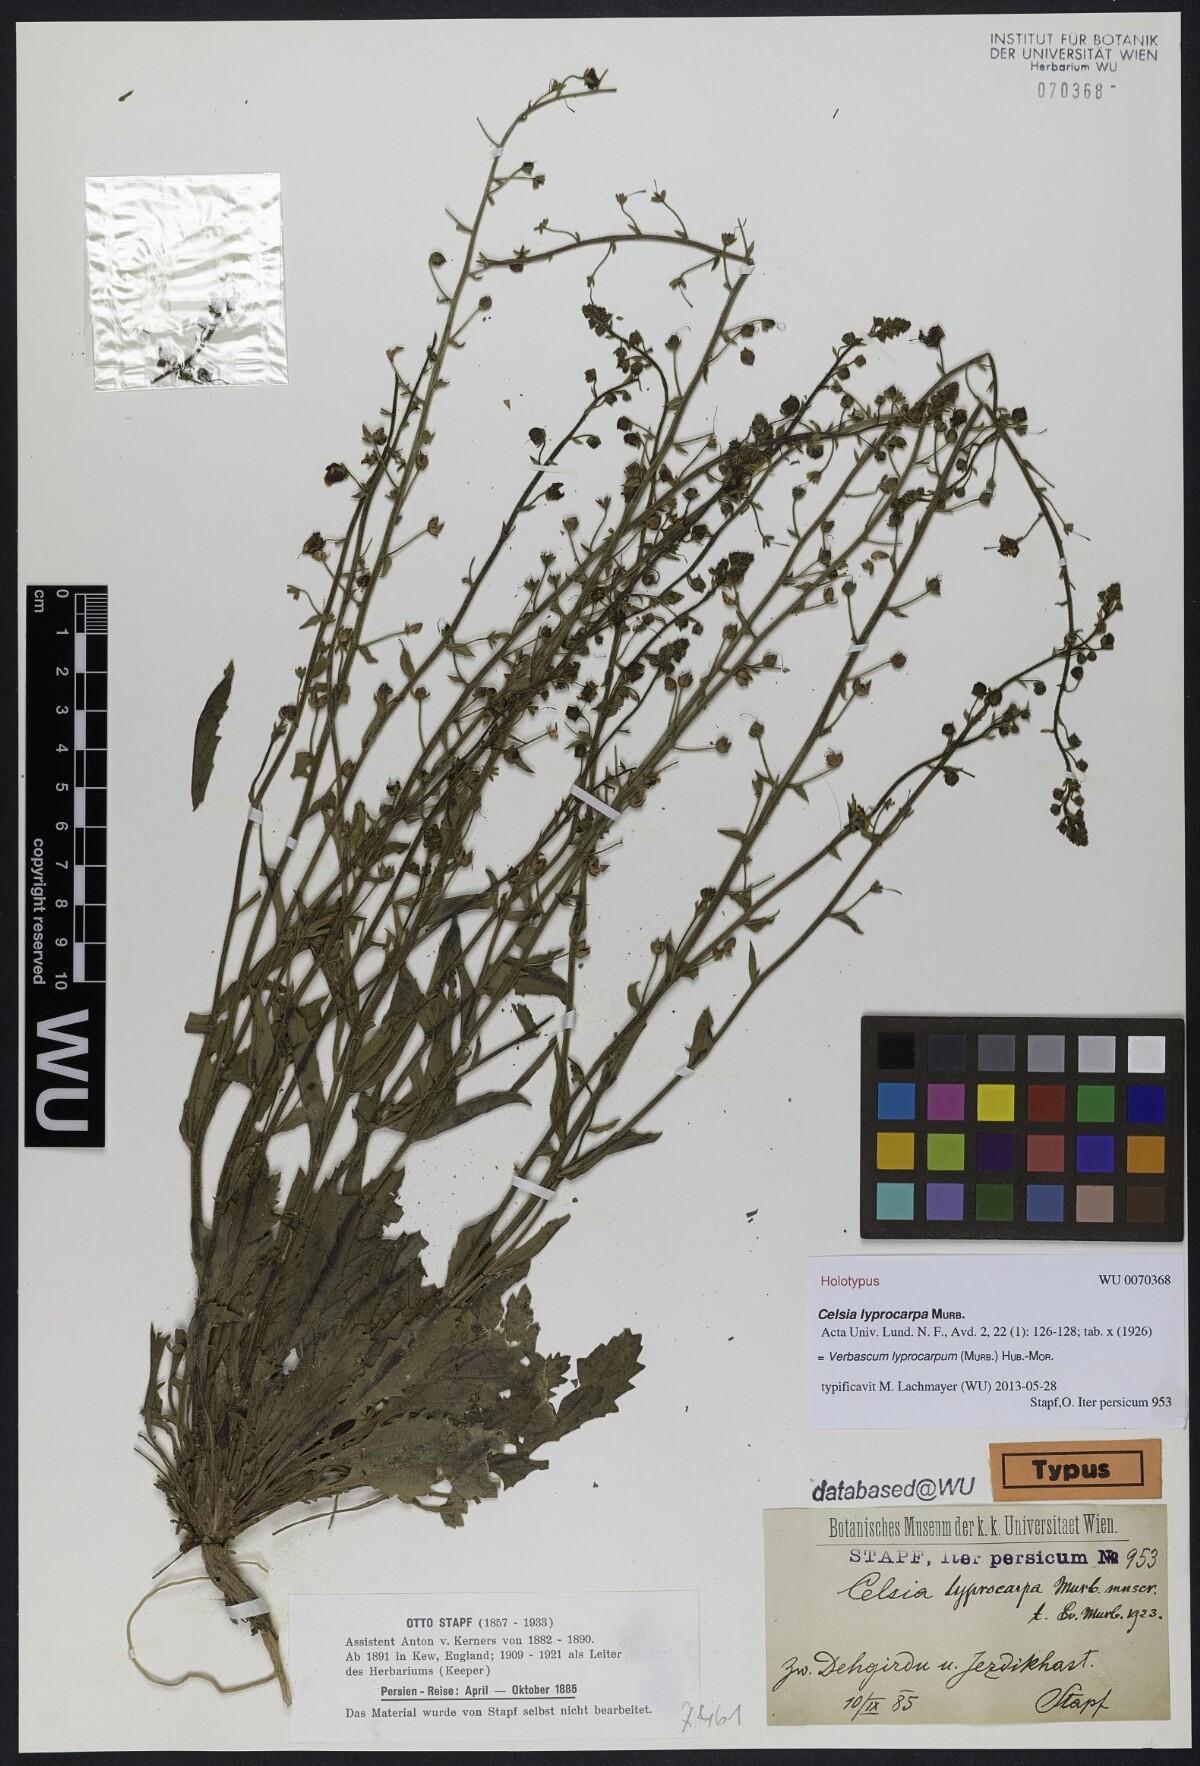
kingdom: Plantae
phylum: Tracheophyta
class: Magnoliopsida
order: Lamiales
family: Scrophulariaceae
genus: Verbascum
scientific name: Verbascum lyprocarpum
